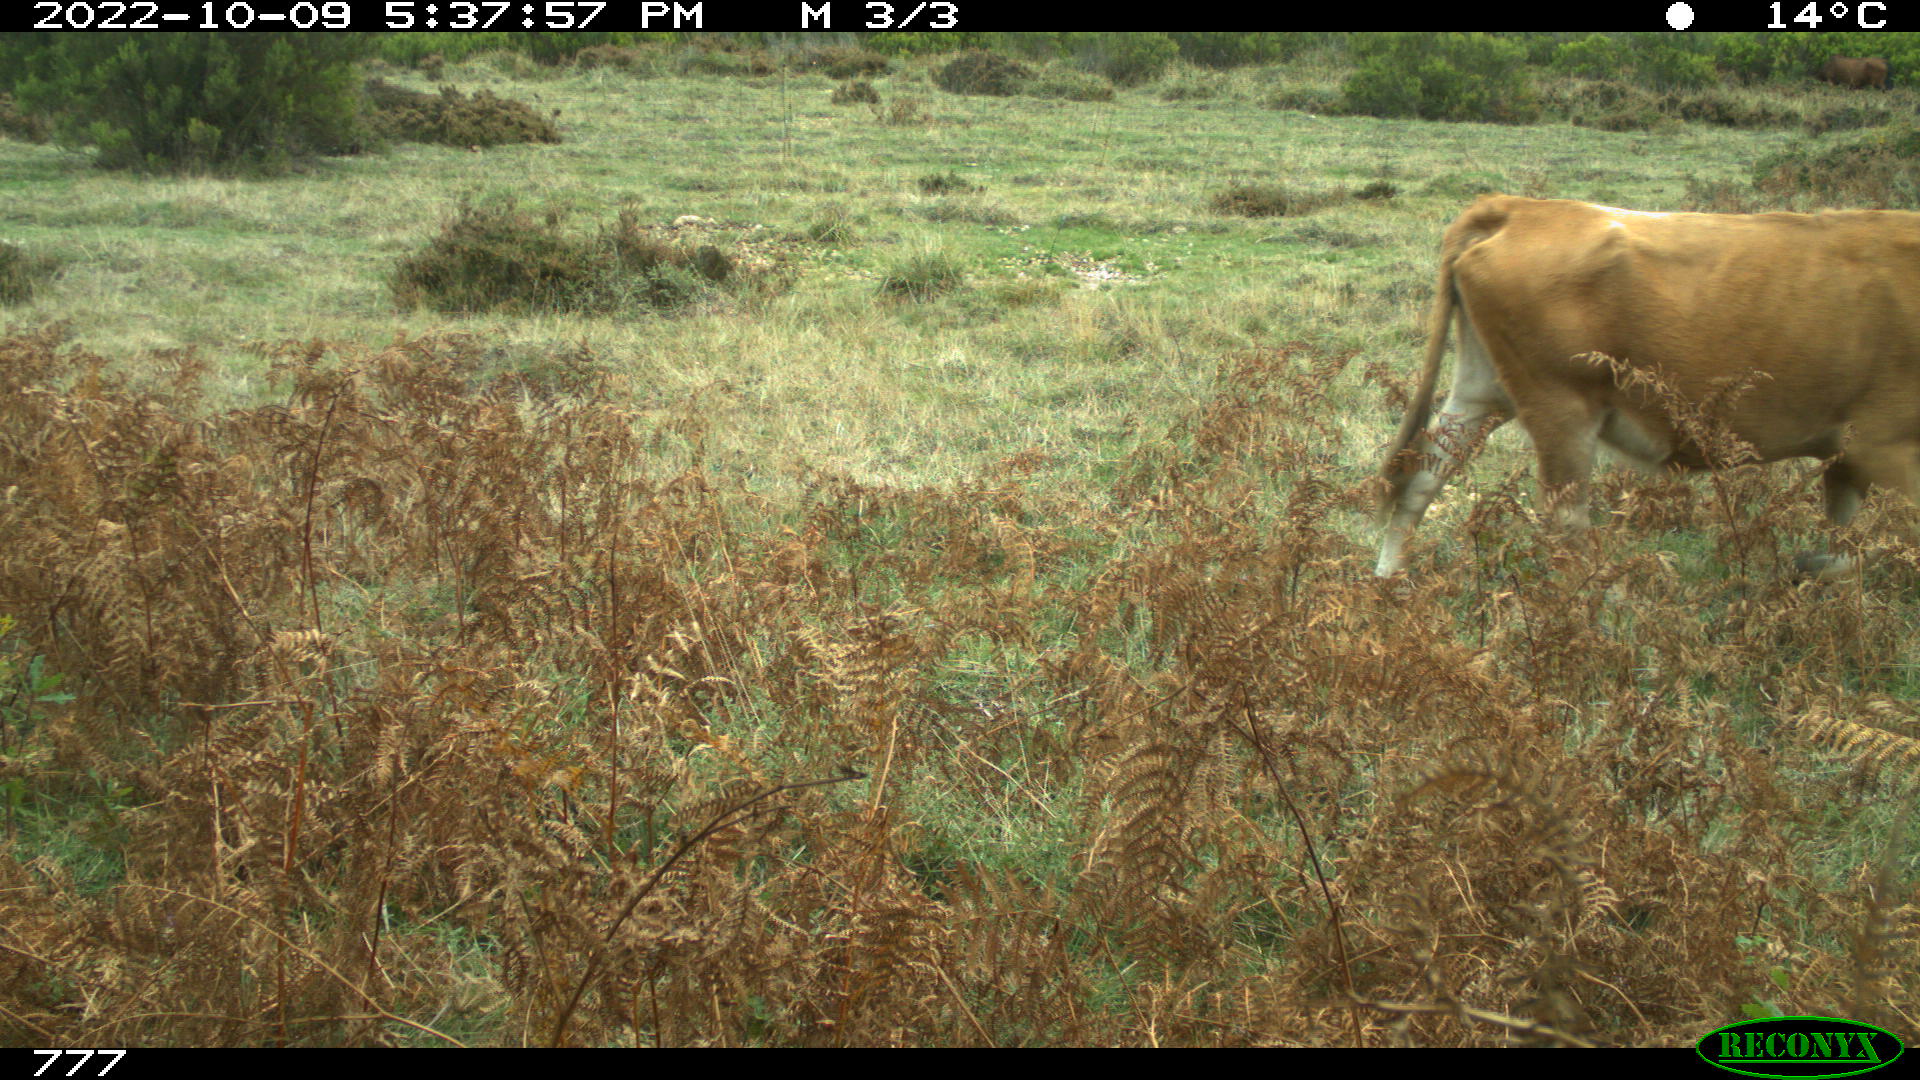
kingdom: Animalia
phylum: Chordata
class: Mammalia
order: Artiodactyla
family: Bovidae
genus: Bos
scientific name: Bos taurus
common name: Domesticated cattle
